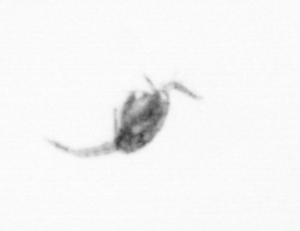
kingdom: Animalia
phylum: Arthropoda
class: Copepoda
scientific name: Copepoda
